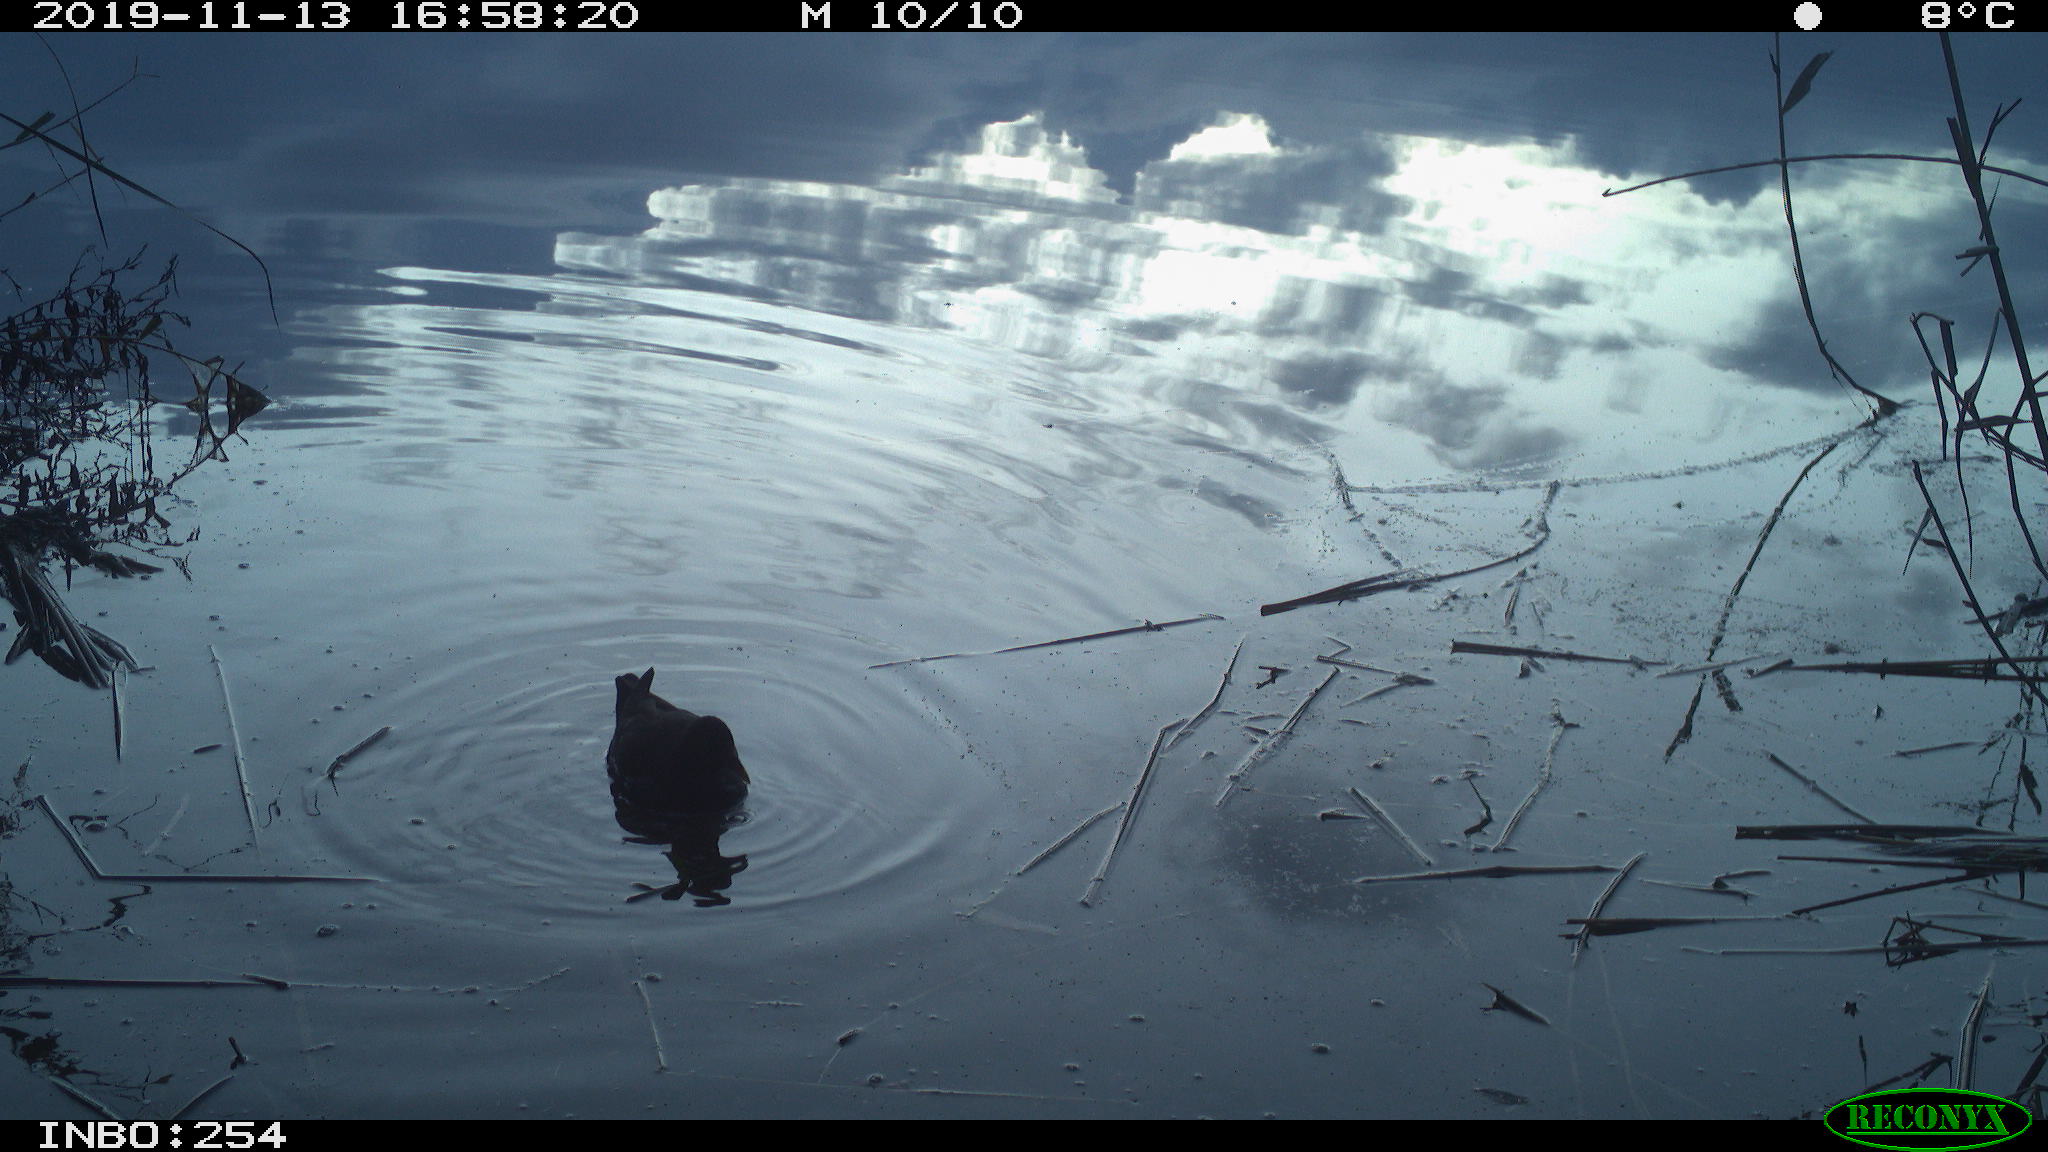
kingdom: Animalia
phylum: Chordata
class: Aves
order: Gruiformes
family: Rallidae
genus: Gallinula
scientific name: Gallinula chloropus
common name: Common moorhen
